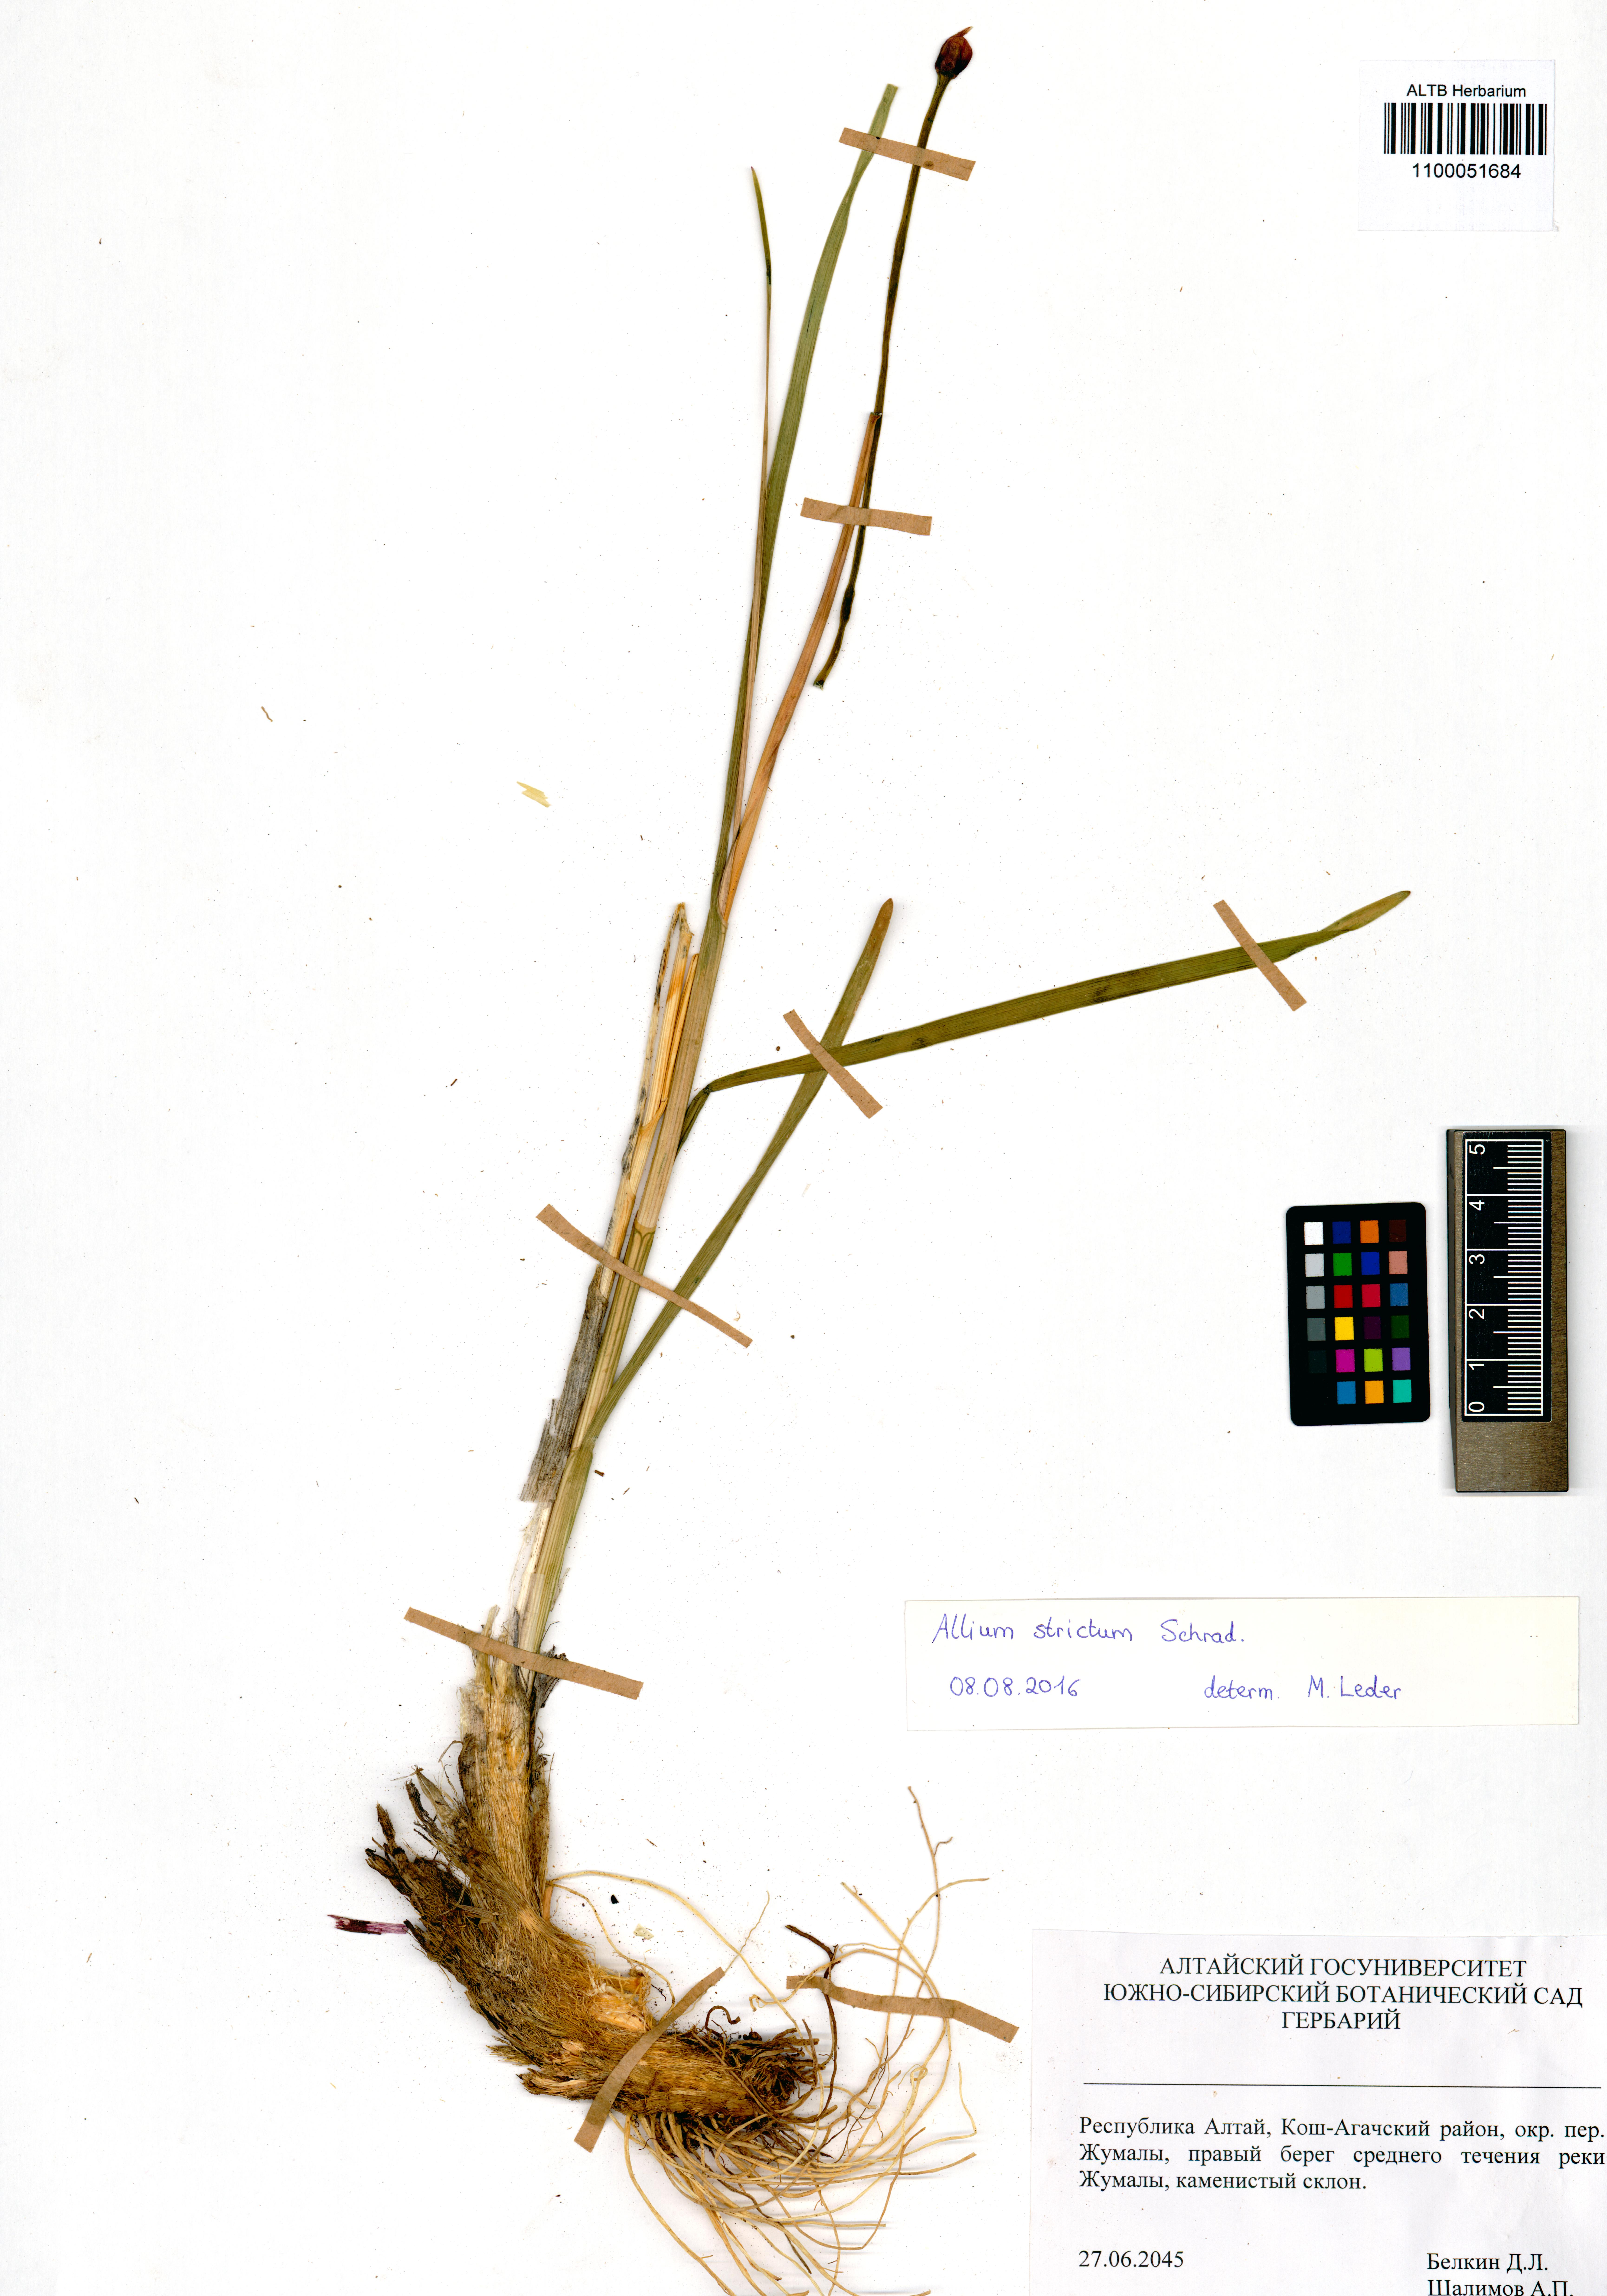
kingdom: Plantae
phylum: Tracheophyta
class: Liliopsida
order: Asparagales
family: Amaryllidaceae
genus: Allium
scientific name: Allium strictum
